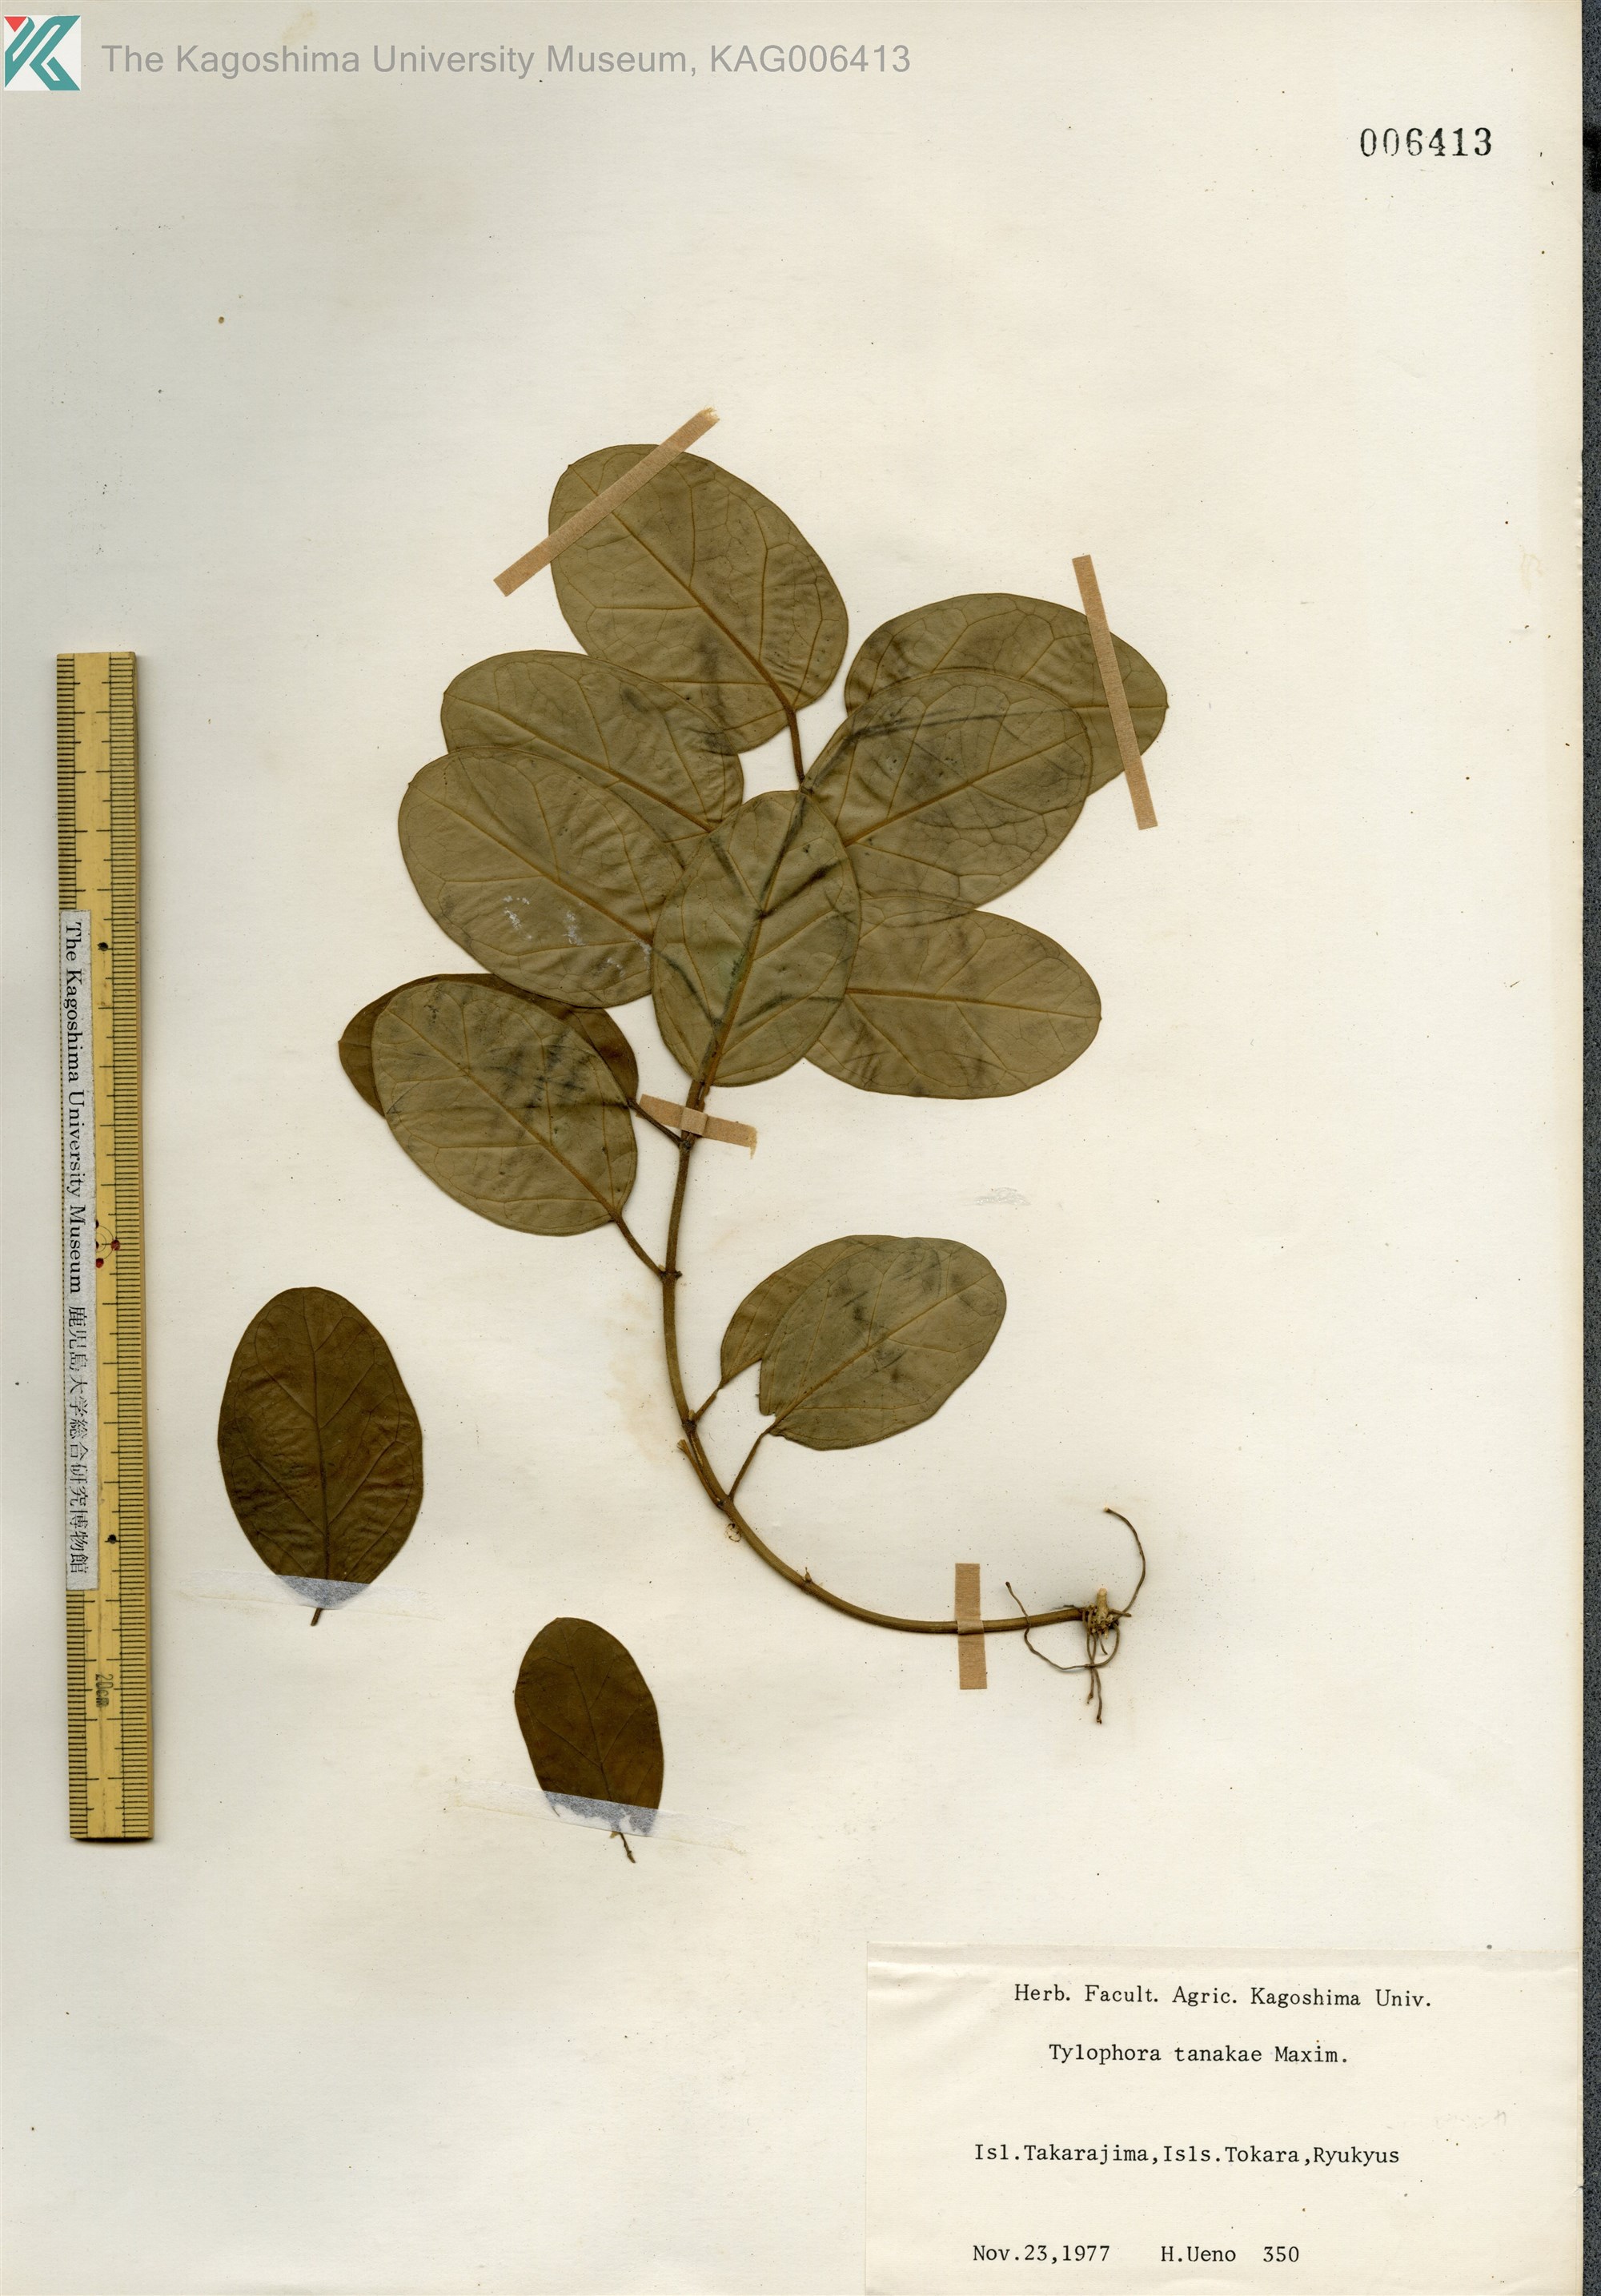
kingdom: Plantae
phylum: Tracheophyta
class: Magnoliopsida
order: Gentianales
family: Apocynaceae
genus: Vincetoxicum
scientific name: Vincetoxicum Tylophora tanakae
